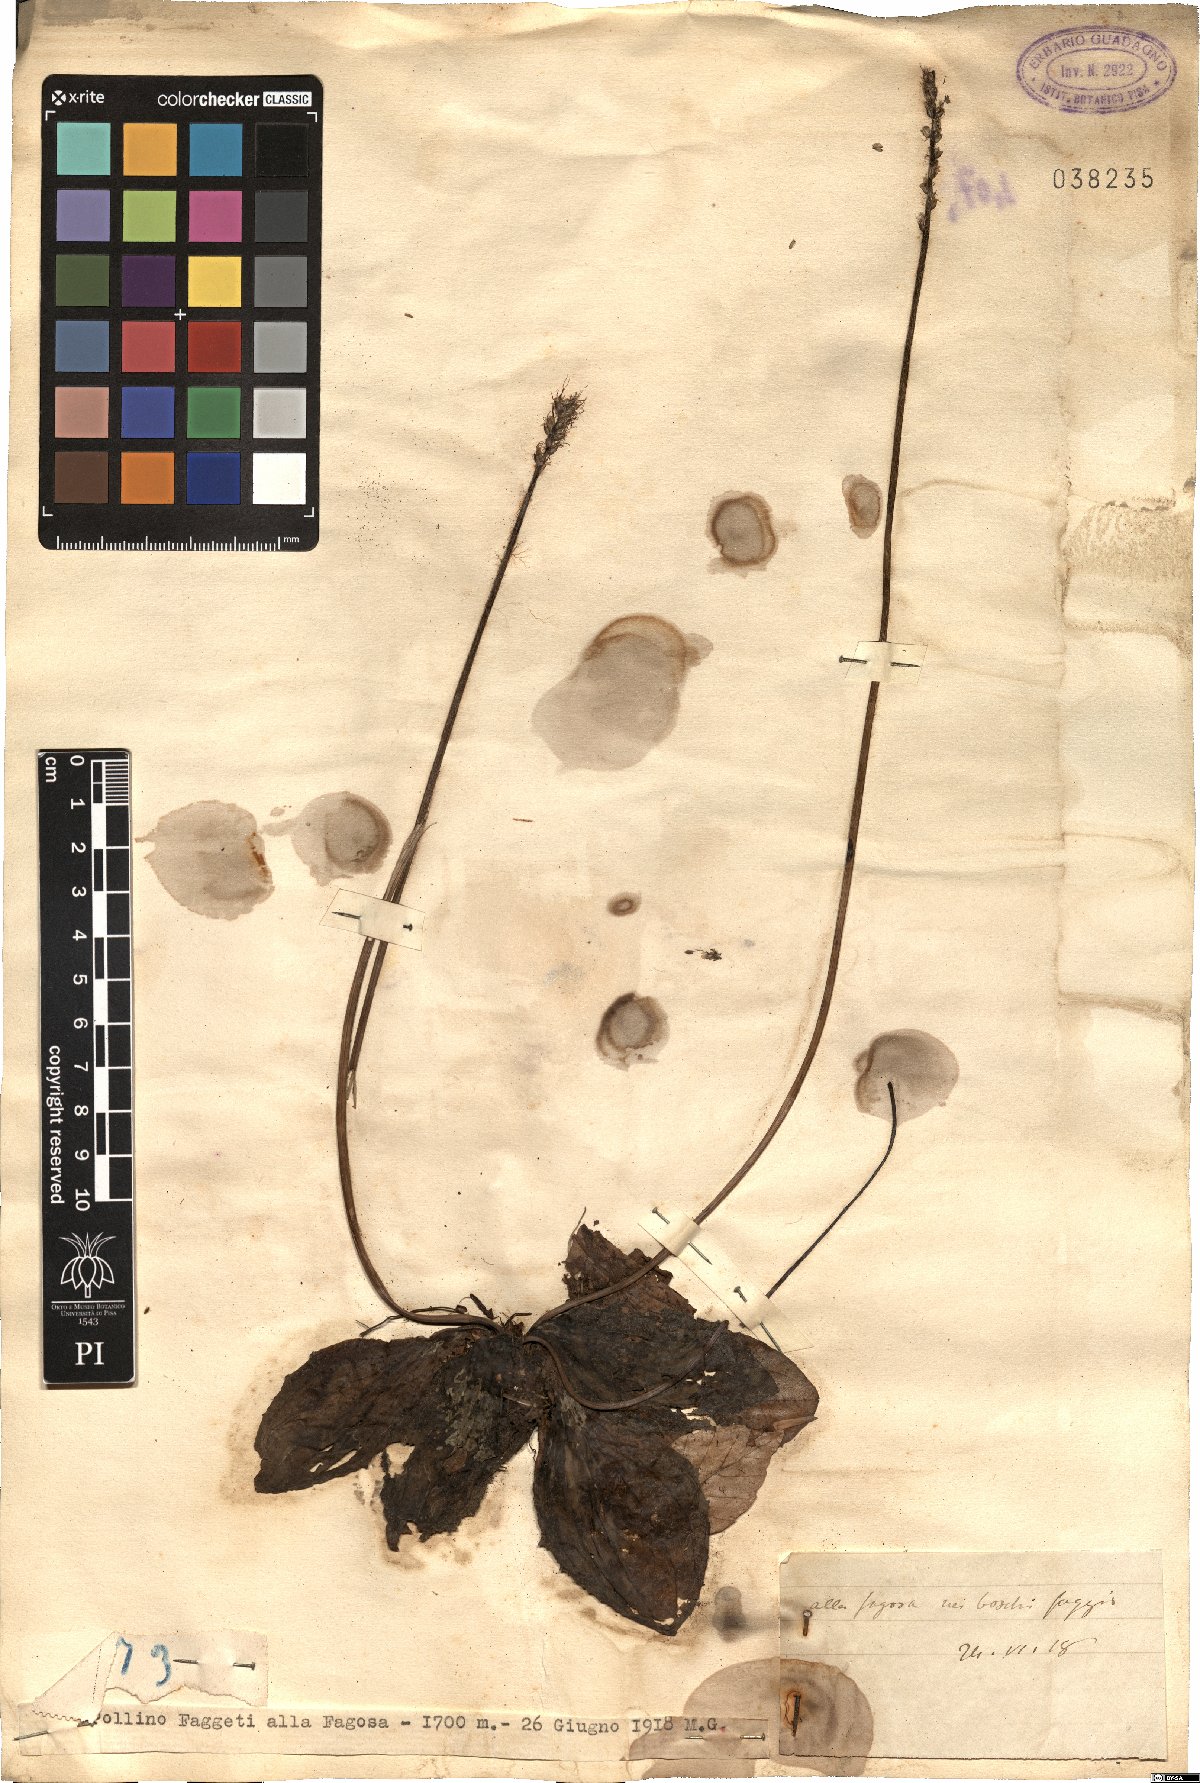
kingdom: Plantae
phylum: Tracheophyta
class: Magnoliopsida
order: Lamiales
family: Plantaginaceae
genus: Plantago
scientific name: Plantago
